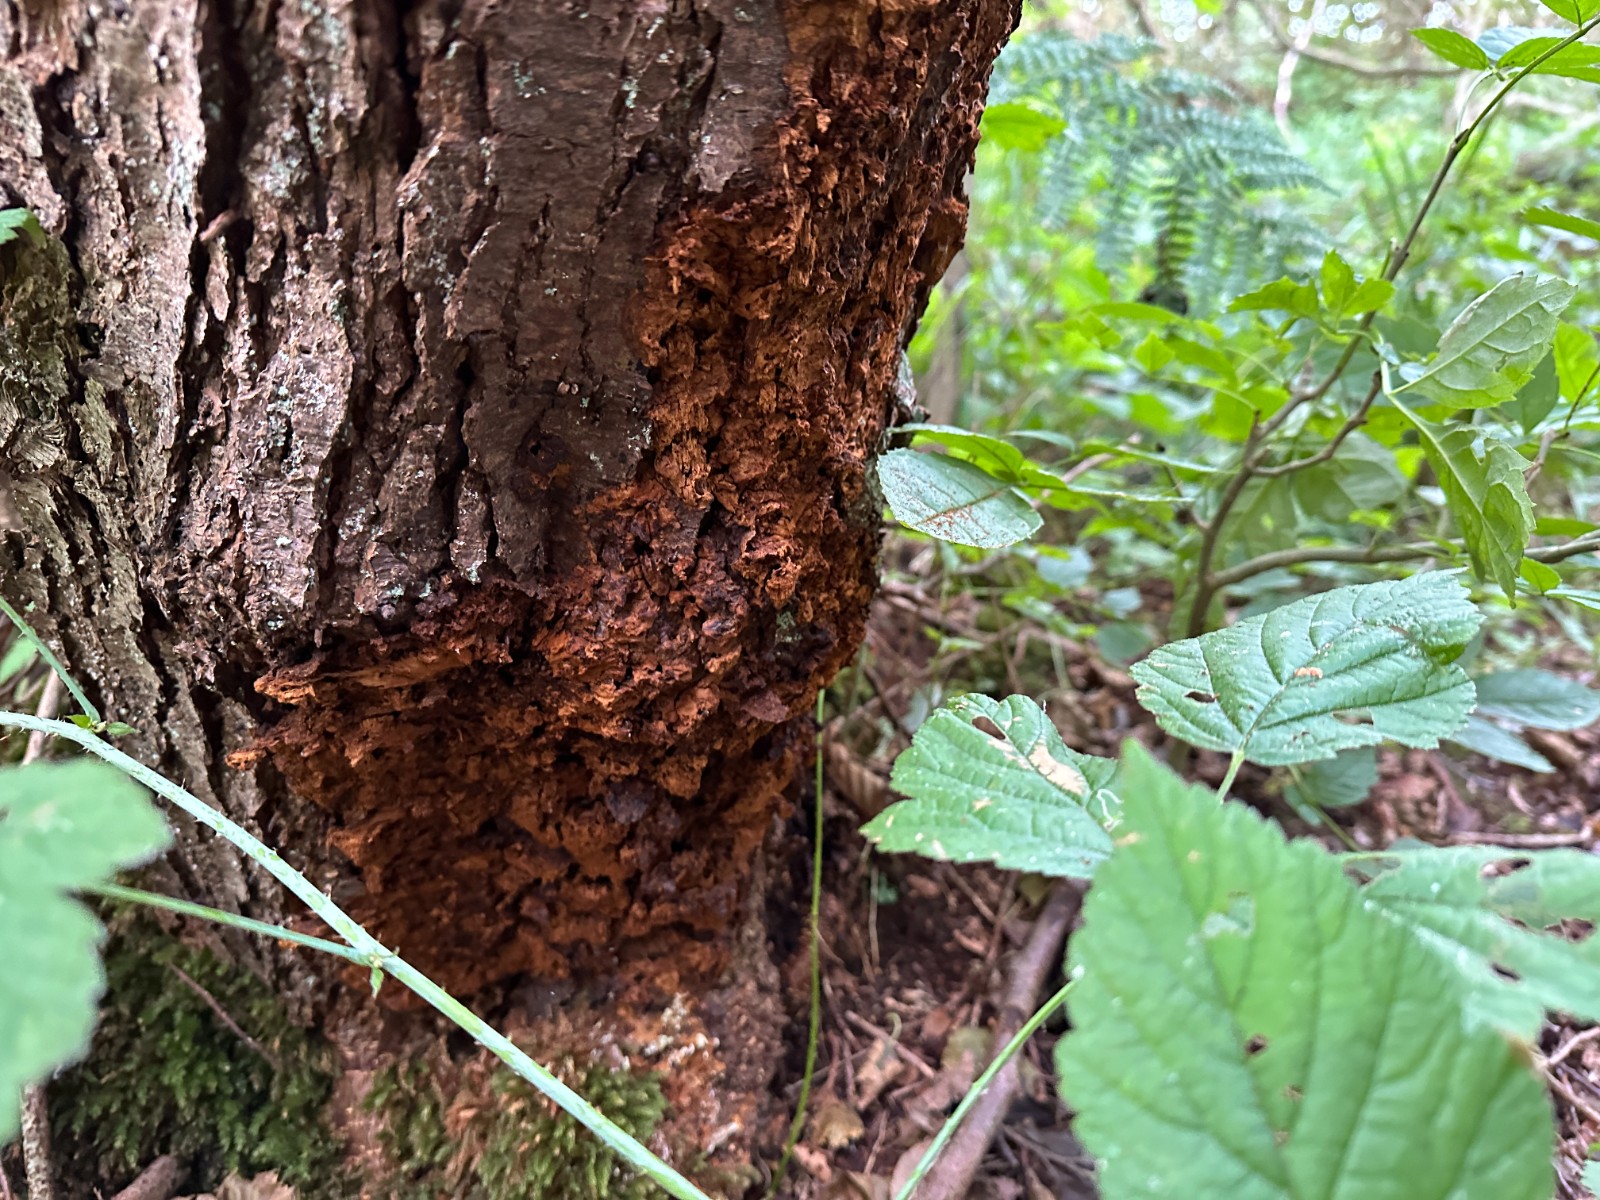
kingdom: Fungi
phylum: Basidiomycota
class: Agaricomycetes
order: Hymenochaetales
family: Hymenochaetaceae
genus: Xanthoporia
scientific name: Xanthoporia radiata
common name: elle-spejlporesvamp
